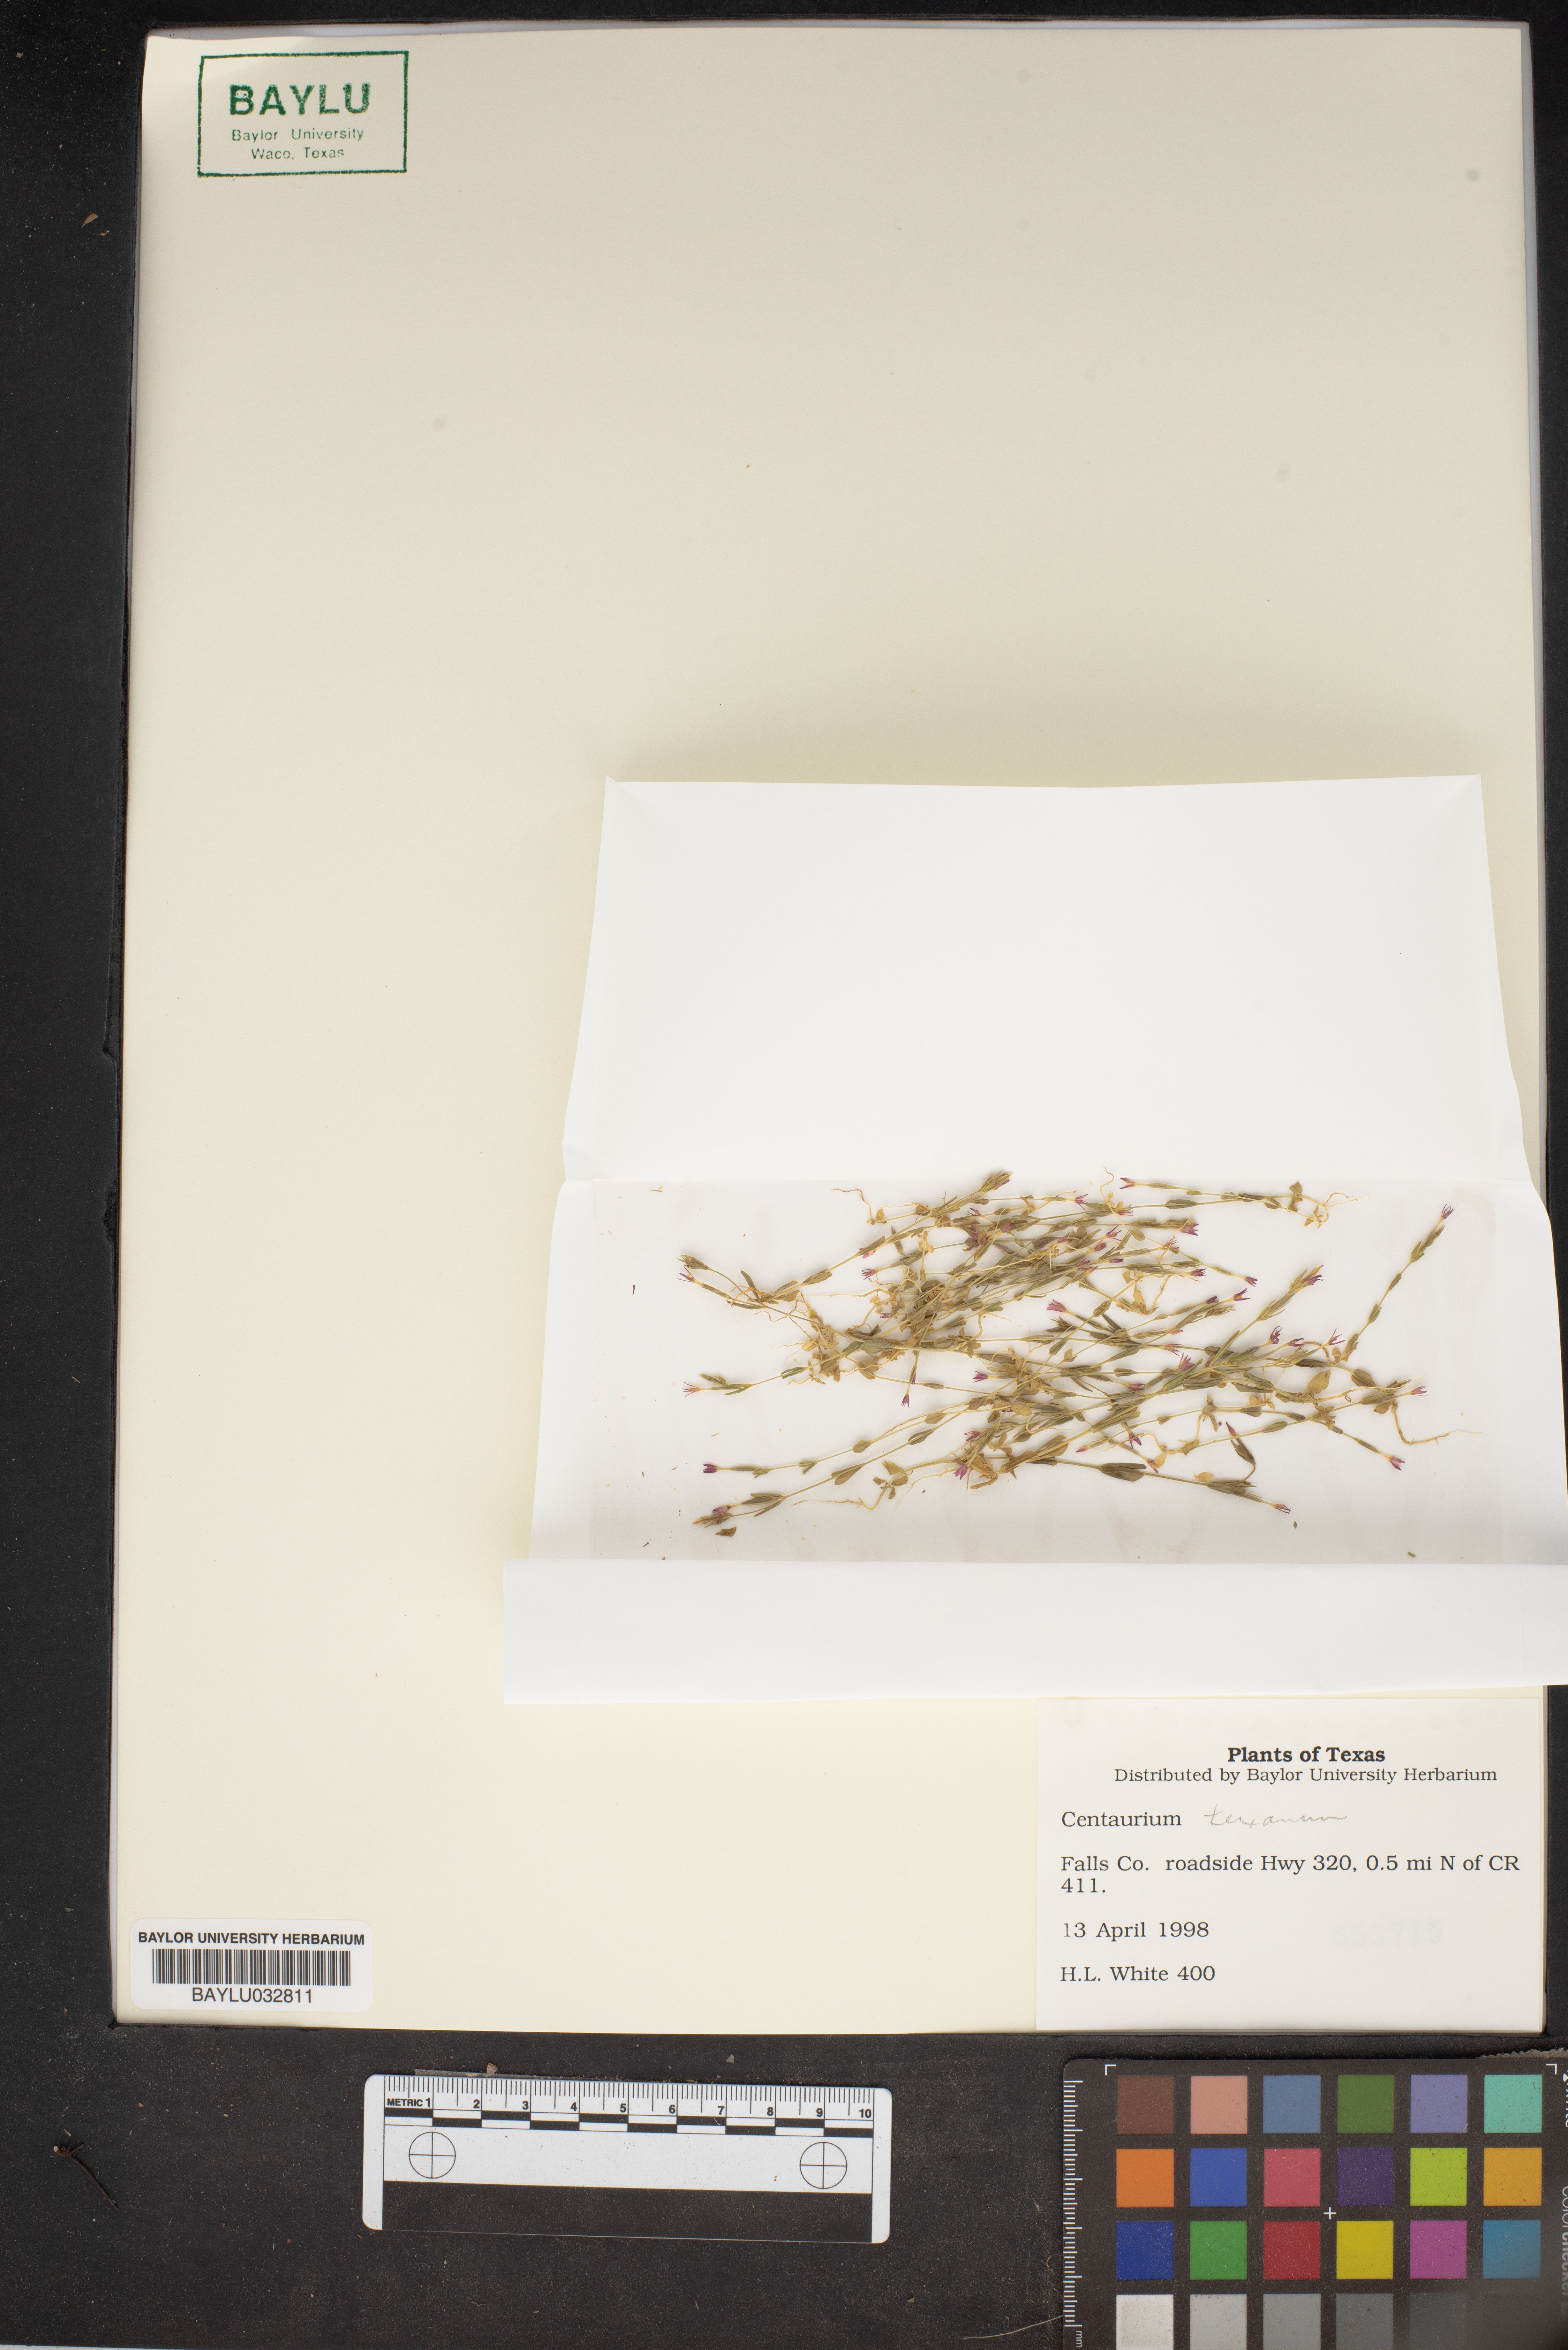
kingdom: Plantae
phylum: Tracheophyta
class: Magnoliopsida
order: Gentianales
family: Gentianaceae
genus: Zeltnera
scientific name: Zeltnera texensis
